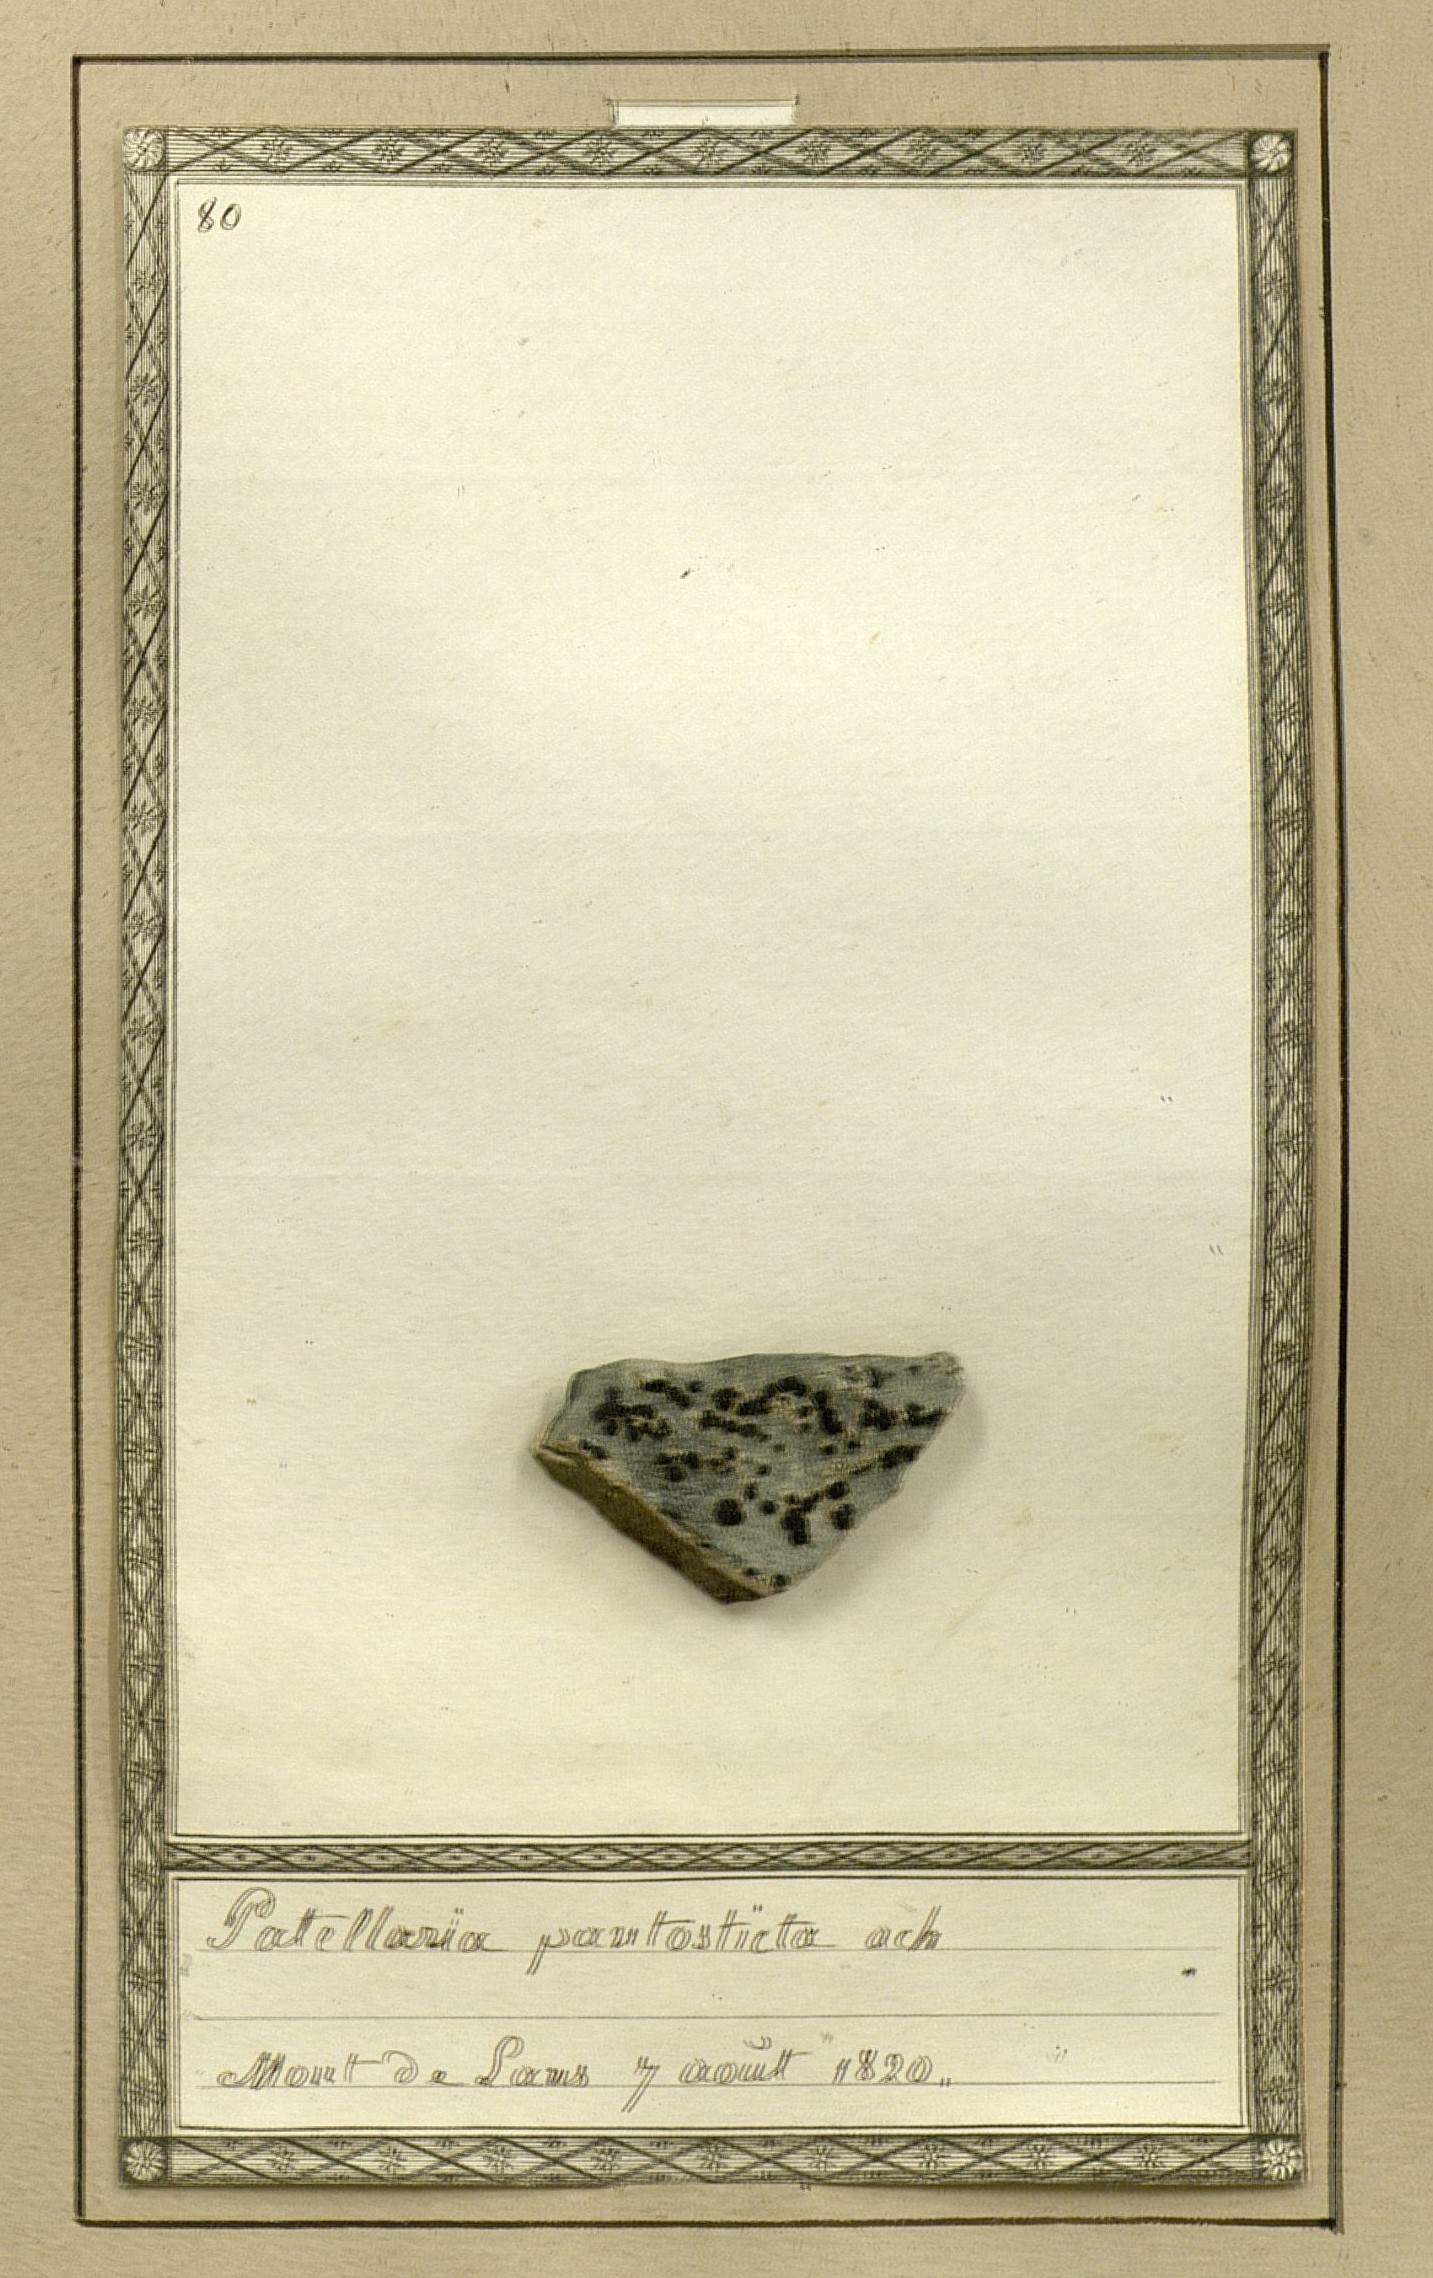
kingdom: Fungi
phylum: Ascomycota
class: Lecanoromycetes
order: Lecideales
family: Lecideaceae
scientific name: Lecideaceae
